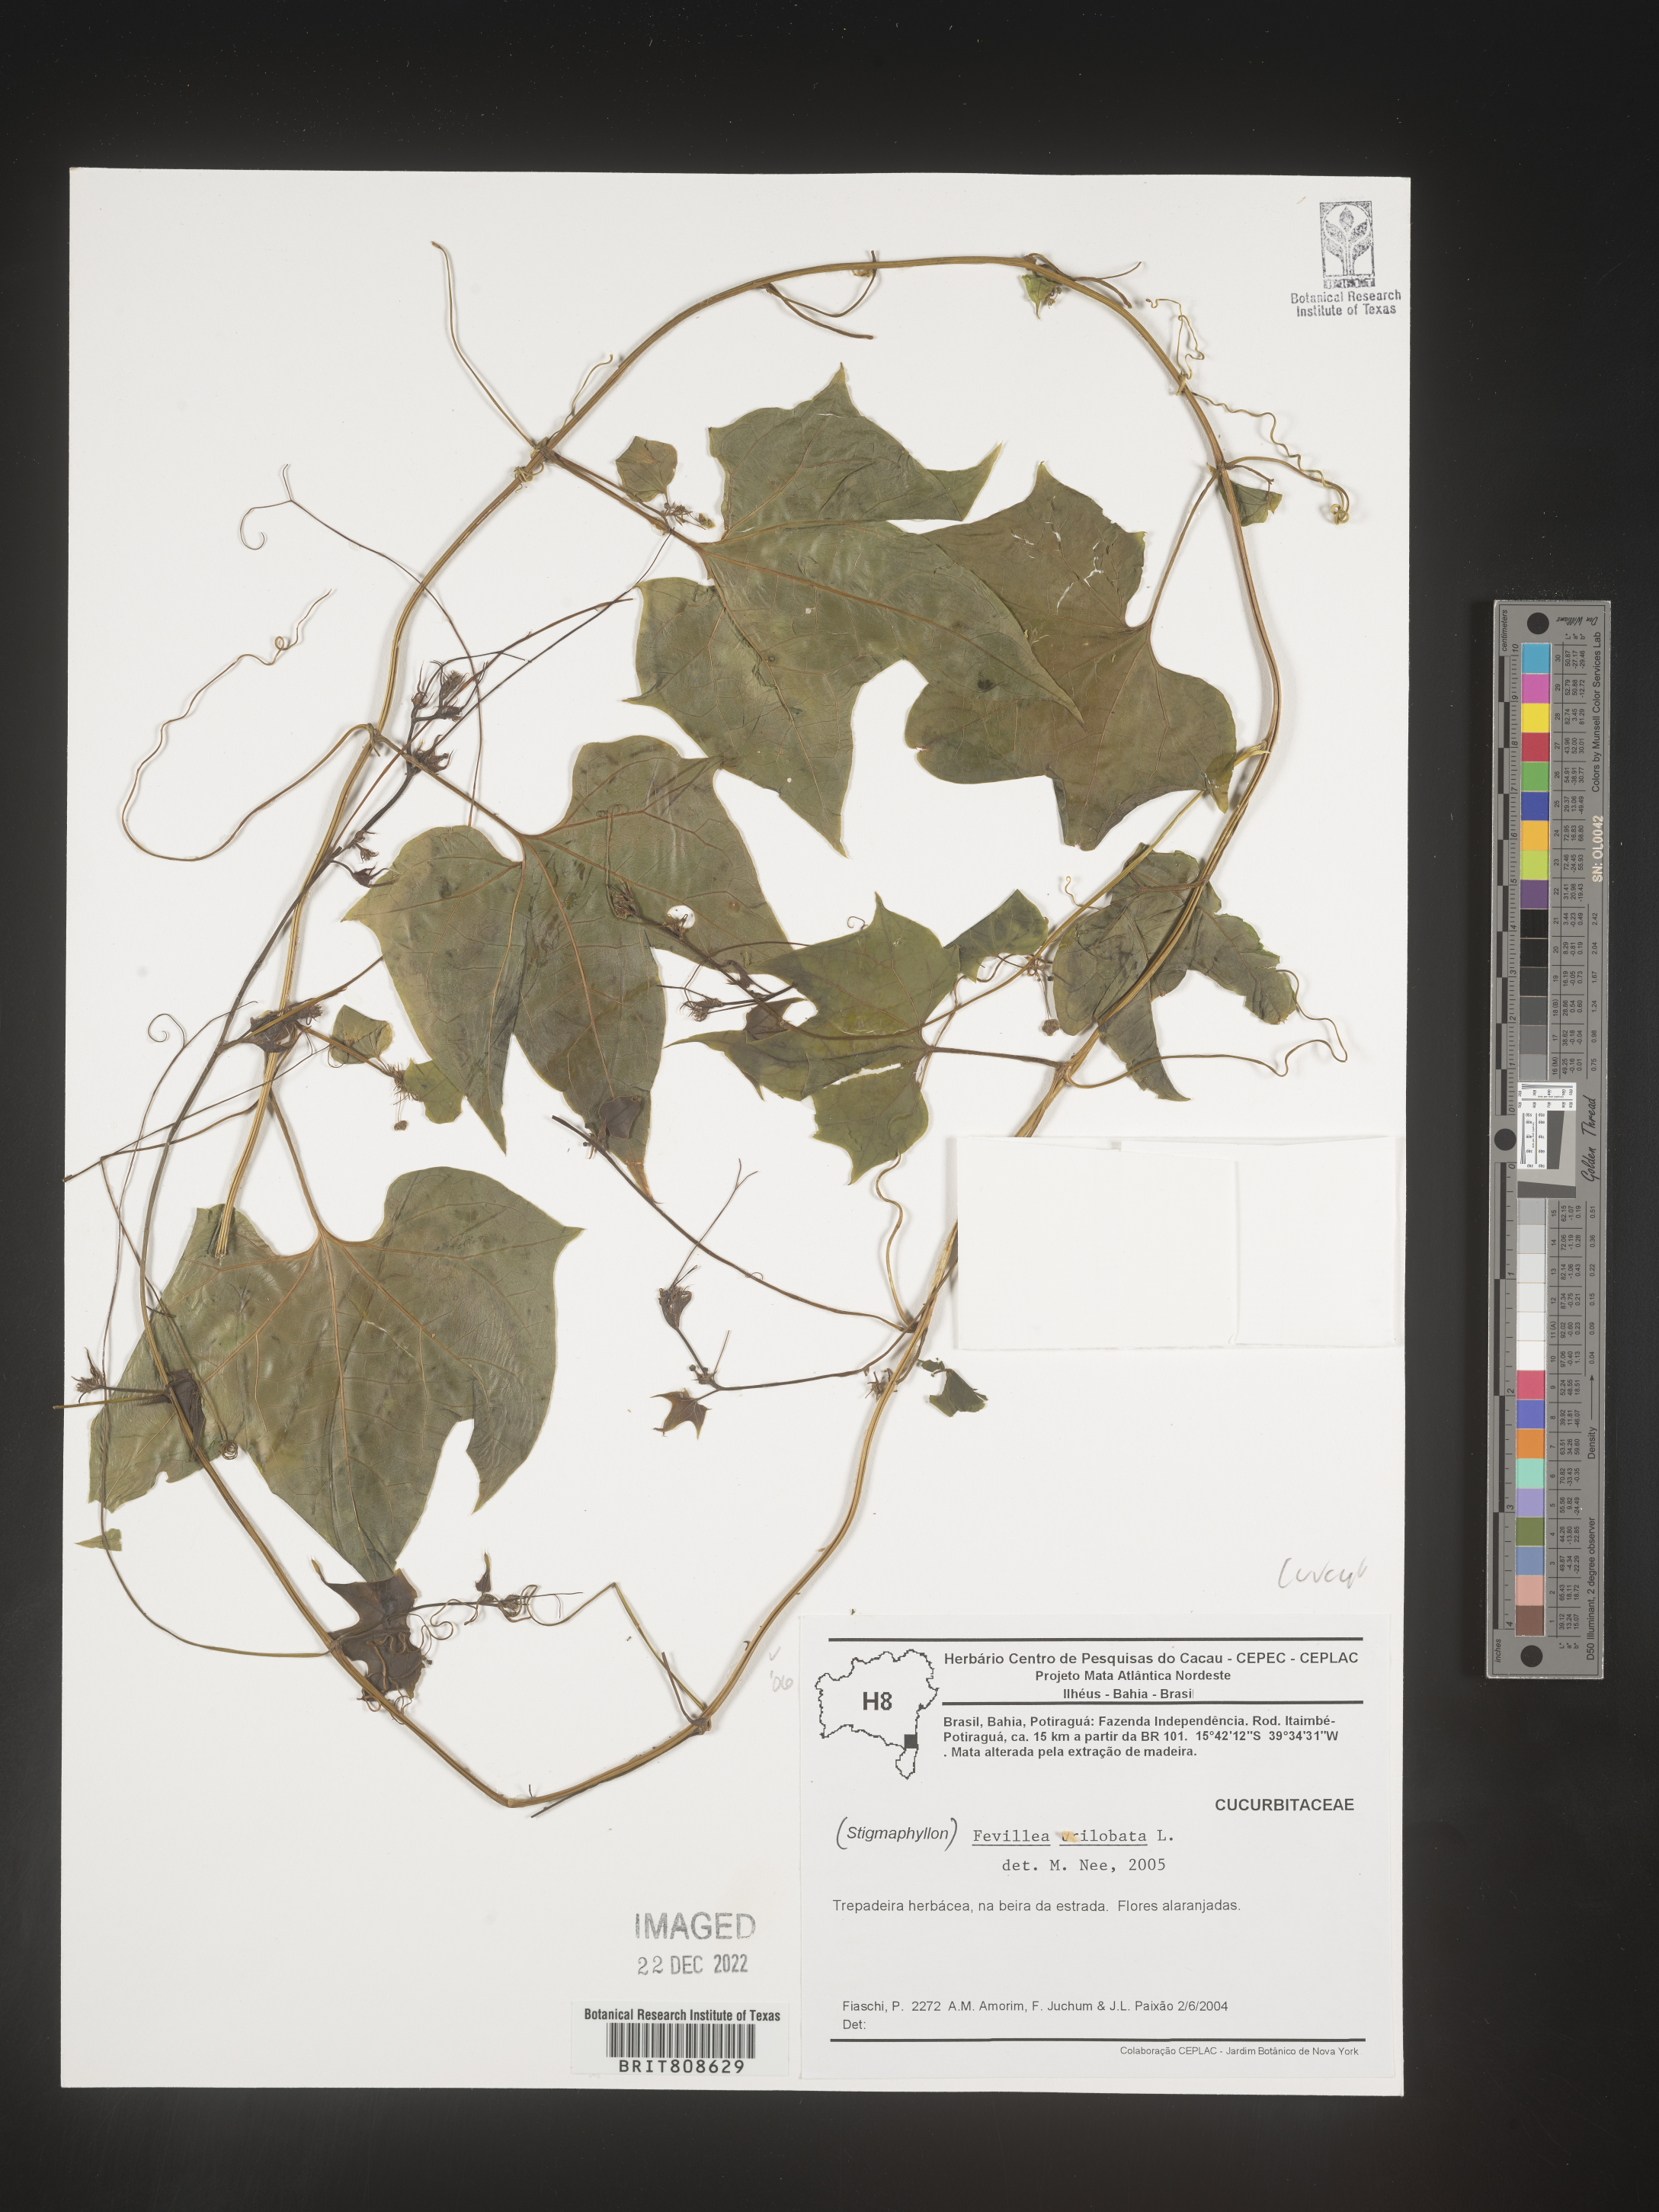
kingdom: Plantae
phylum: Tracheophyta
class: Magnoliopsida
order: Cucurbitales
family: Cucurbitaceae
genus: Fevillea
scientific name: Fevillea
